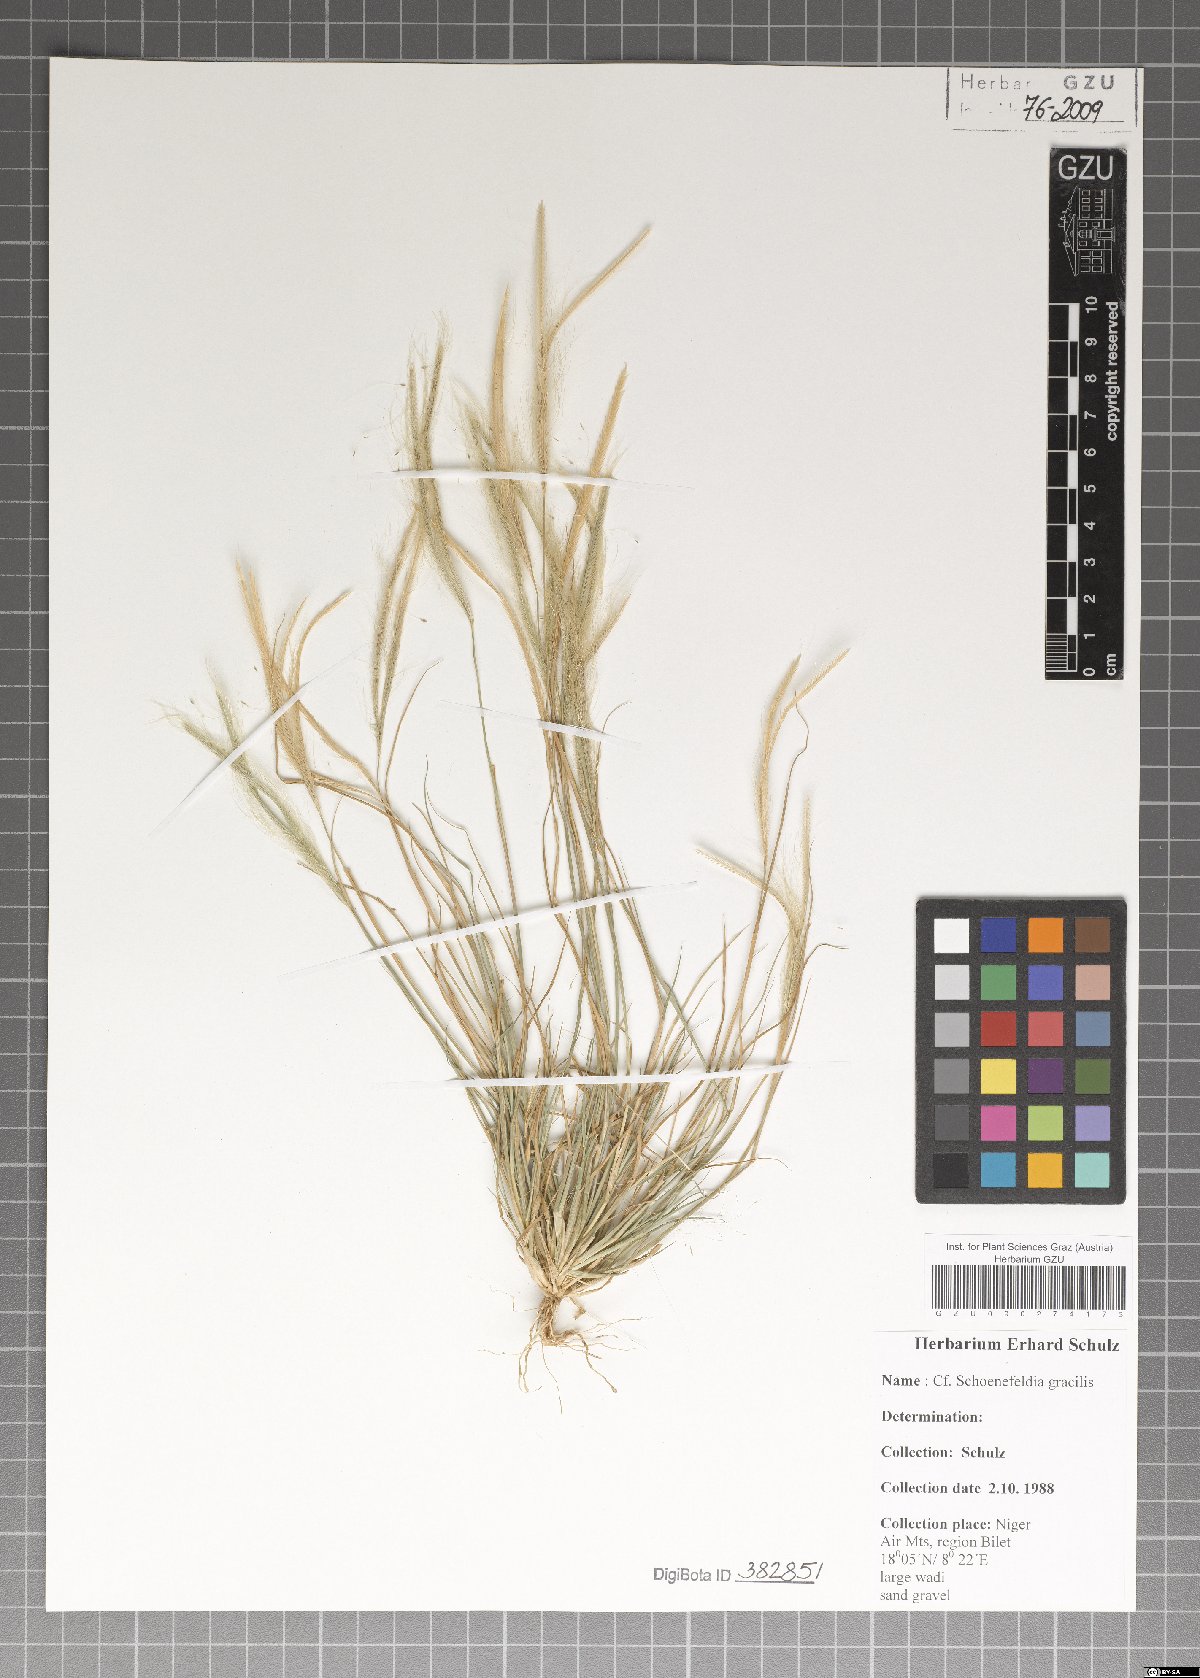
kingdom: Plantae
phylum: Tracheophyta
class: Liliopsida
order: Poales
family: Poaceae
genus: Schoenefeldia
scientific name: Schoenefeldia gracilis
